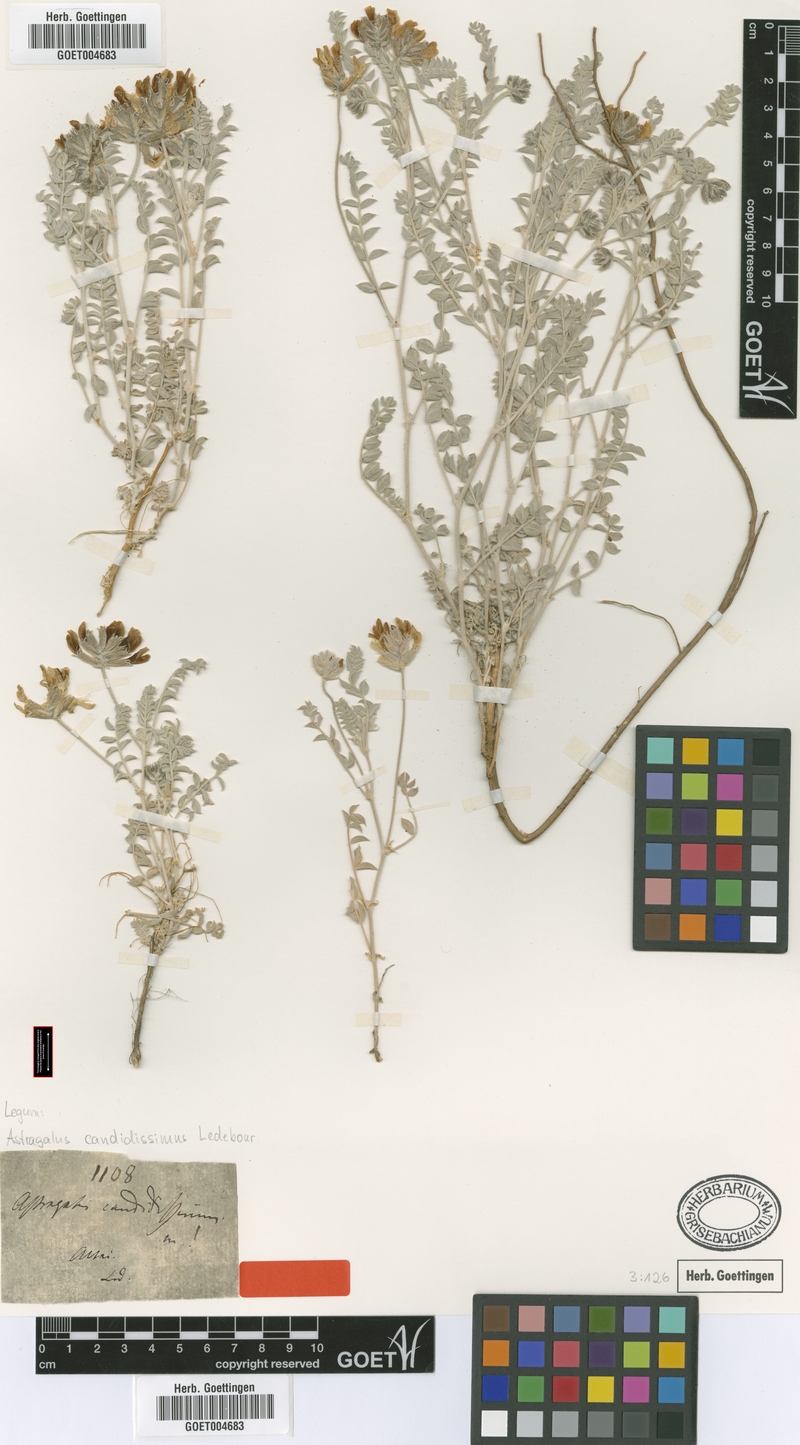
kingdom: Plantae
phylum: Tracheophyta
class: Magnoliopsida
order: Fabales
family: Fabaceae
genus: Astragalus
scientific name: Astragalus candidissimus
